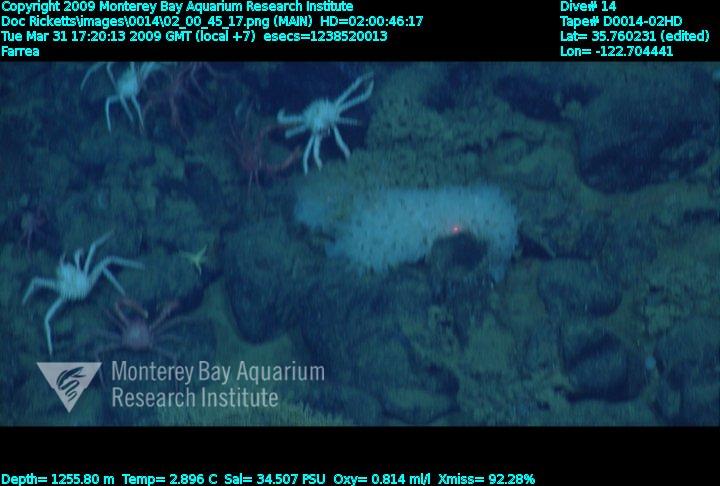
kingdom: Animalia
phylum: Porifera
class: Hexactinellida
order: Sceptrulophora
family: Farreidae
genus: Farrea
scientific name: Farrea
